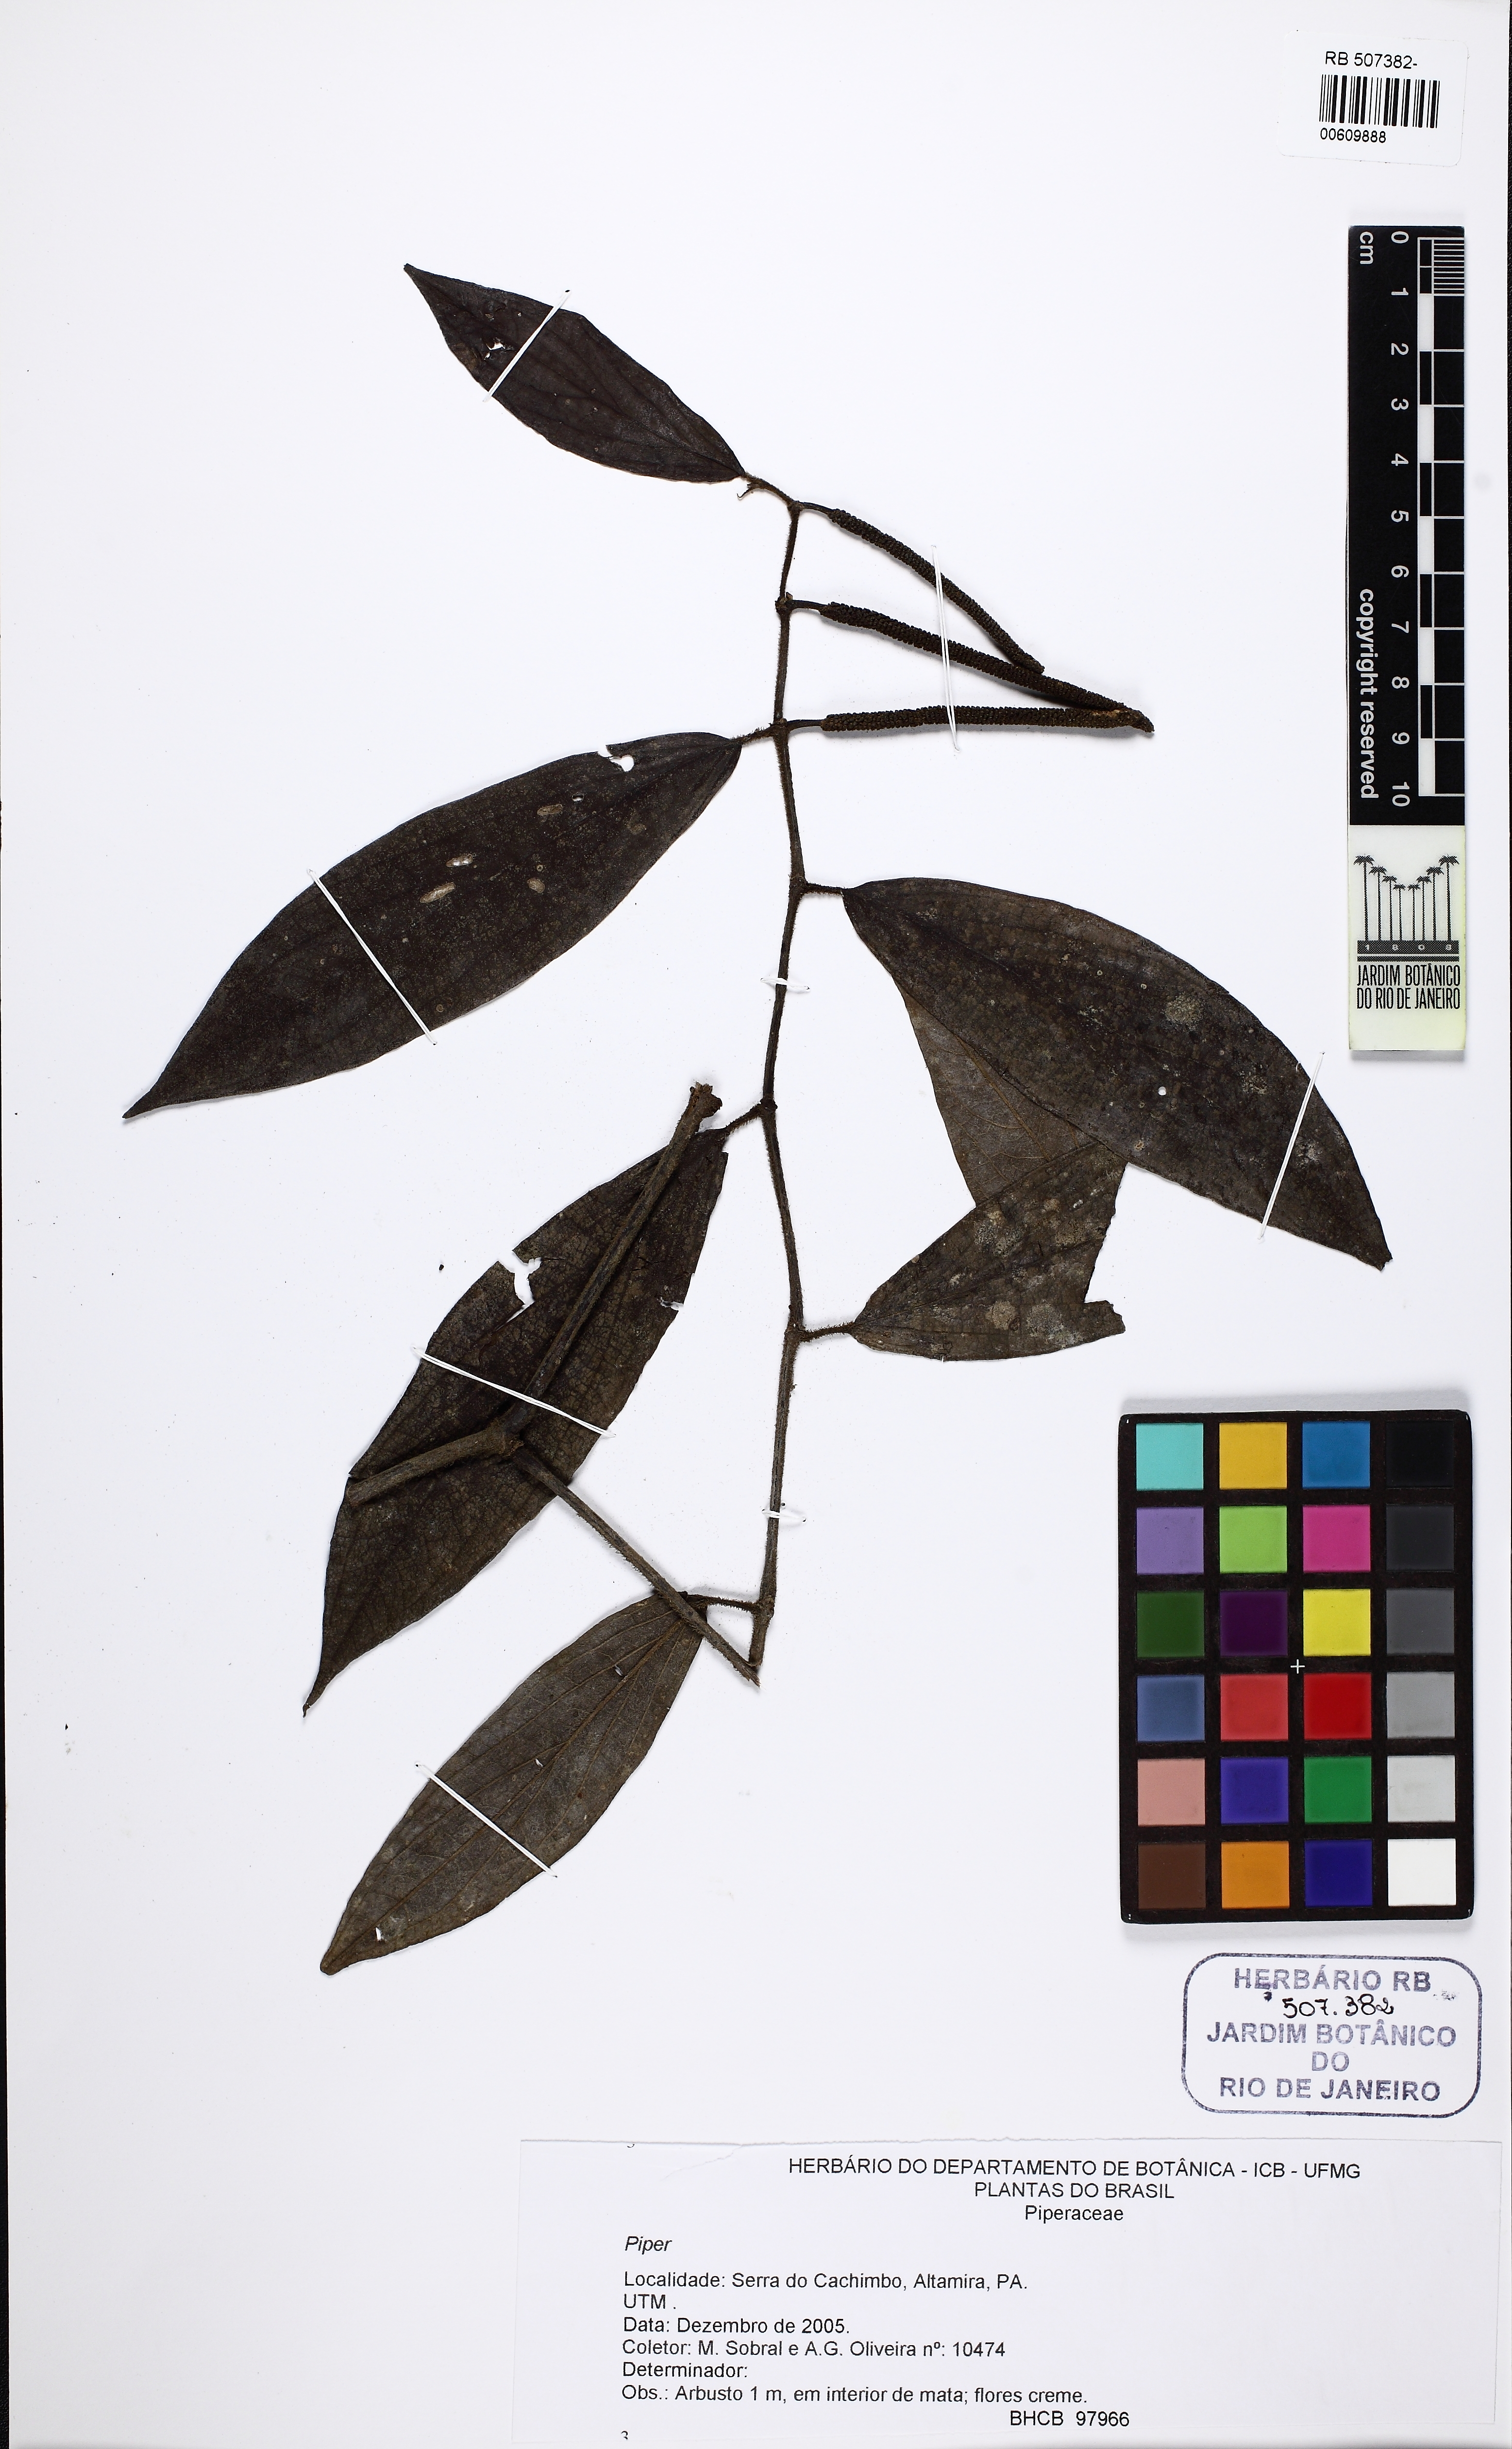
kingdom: Plantae
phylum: Tracheophyta
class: Magnoliopsida
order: Piperales
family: Piperaceae
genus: Piper
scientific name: Piper
